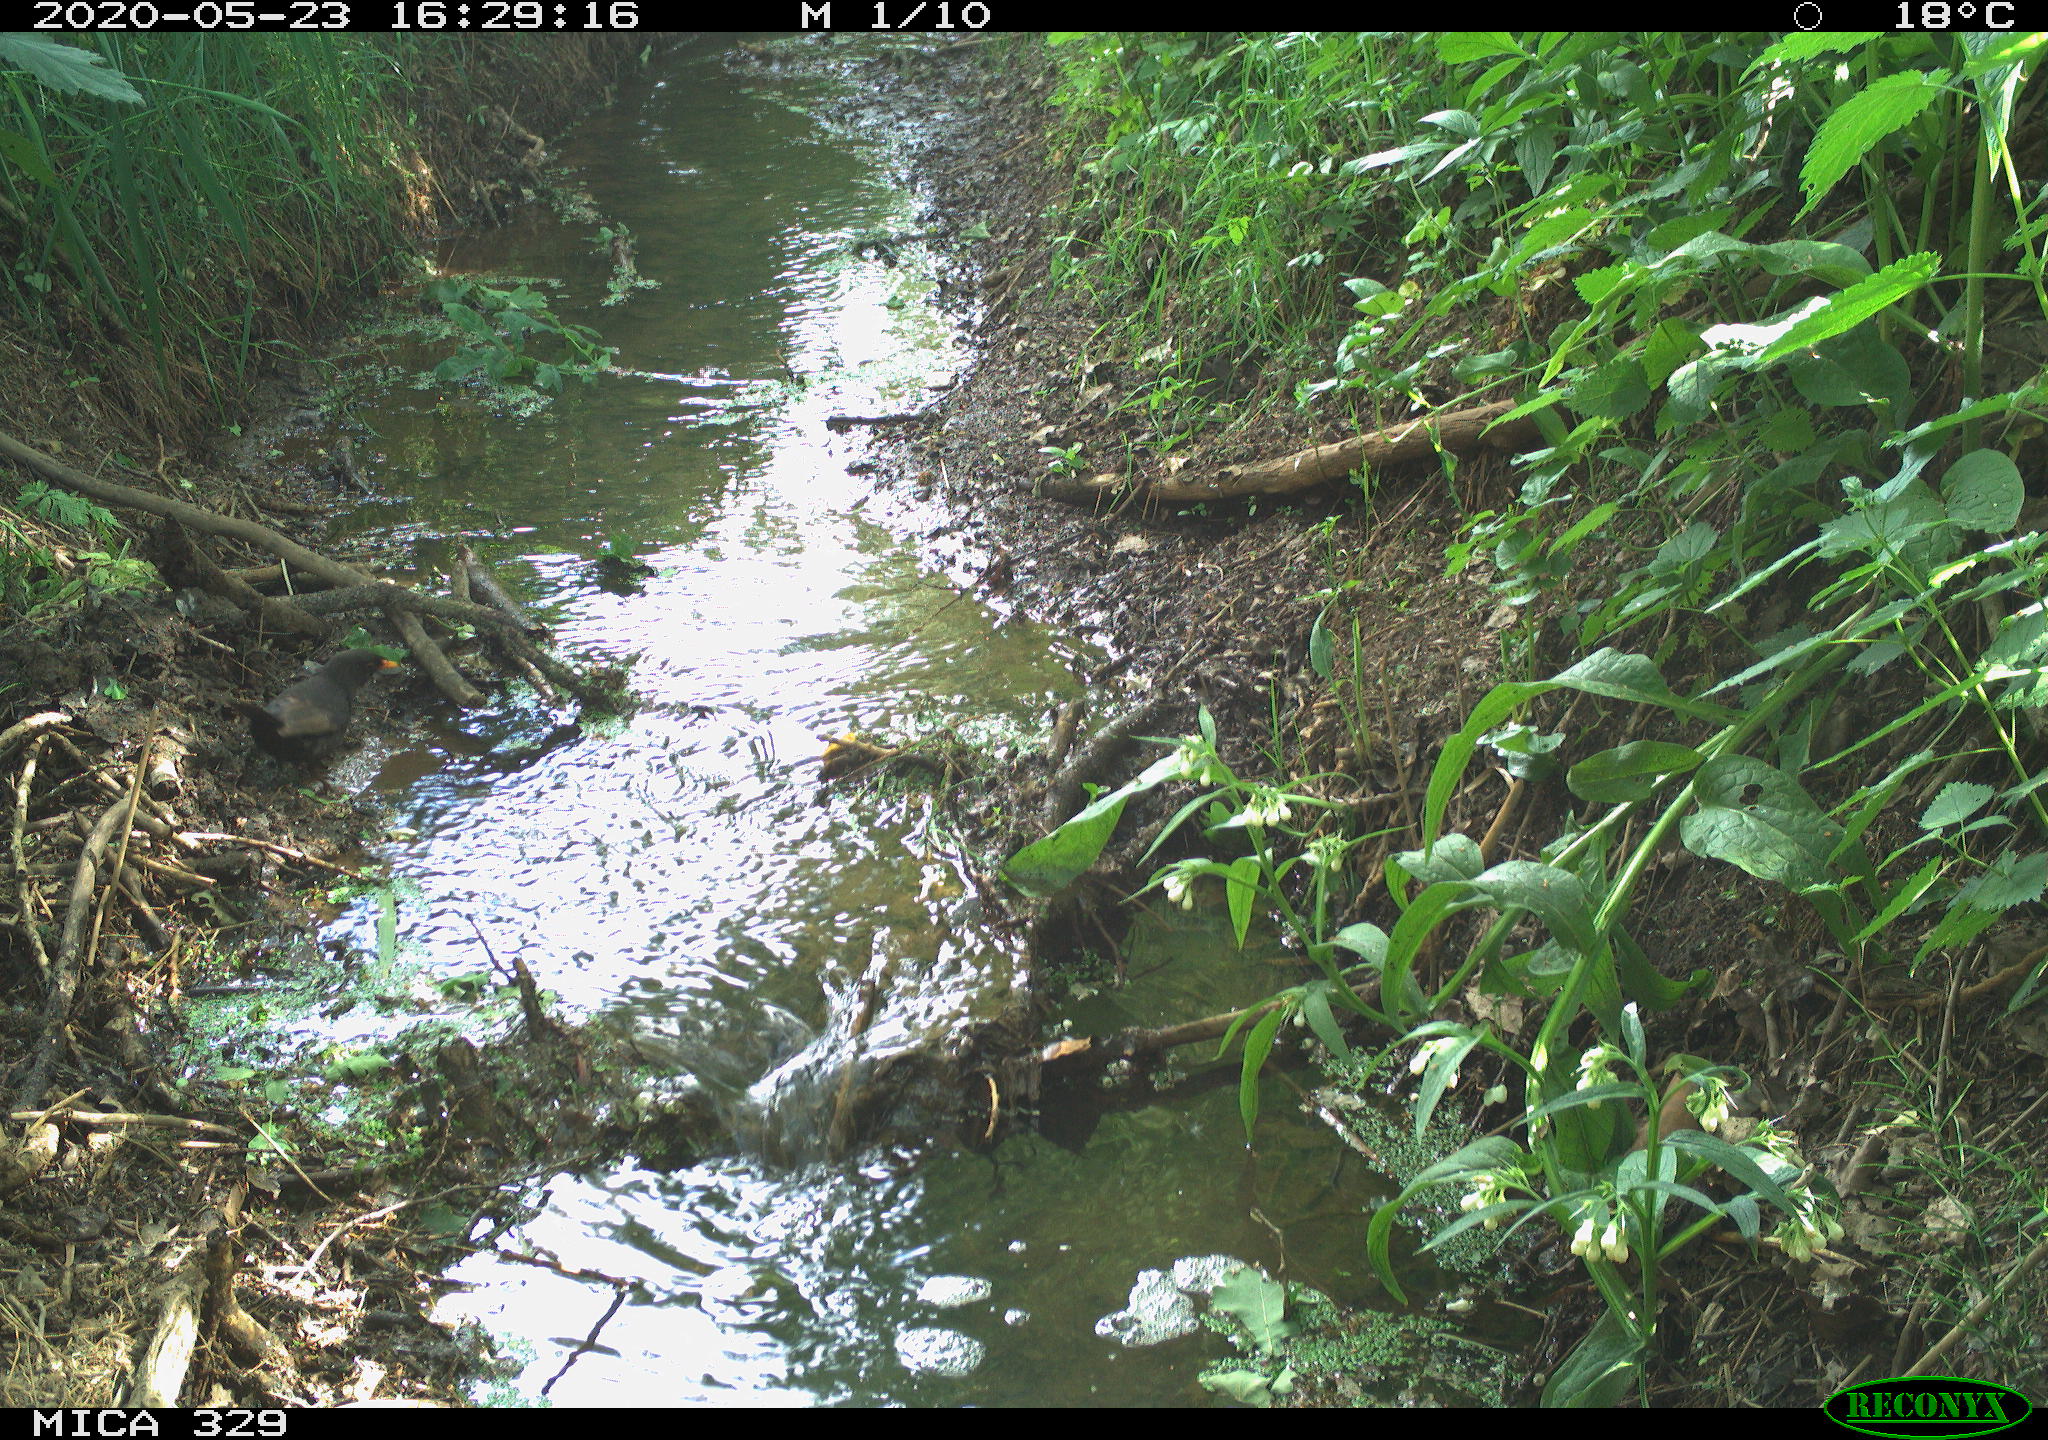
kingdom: Animalia
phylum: Chordata
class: Aves
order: Passeriformes
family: Turdidae
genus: Turdus
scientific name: Turdus merula
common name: Common blackbird
